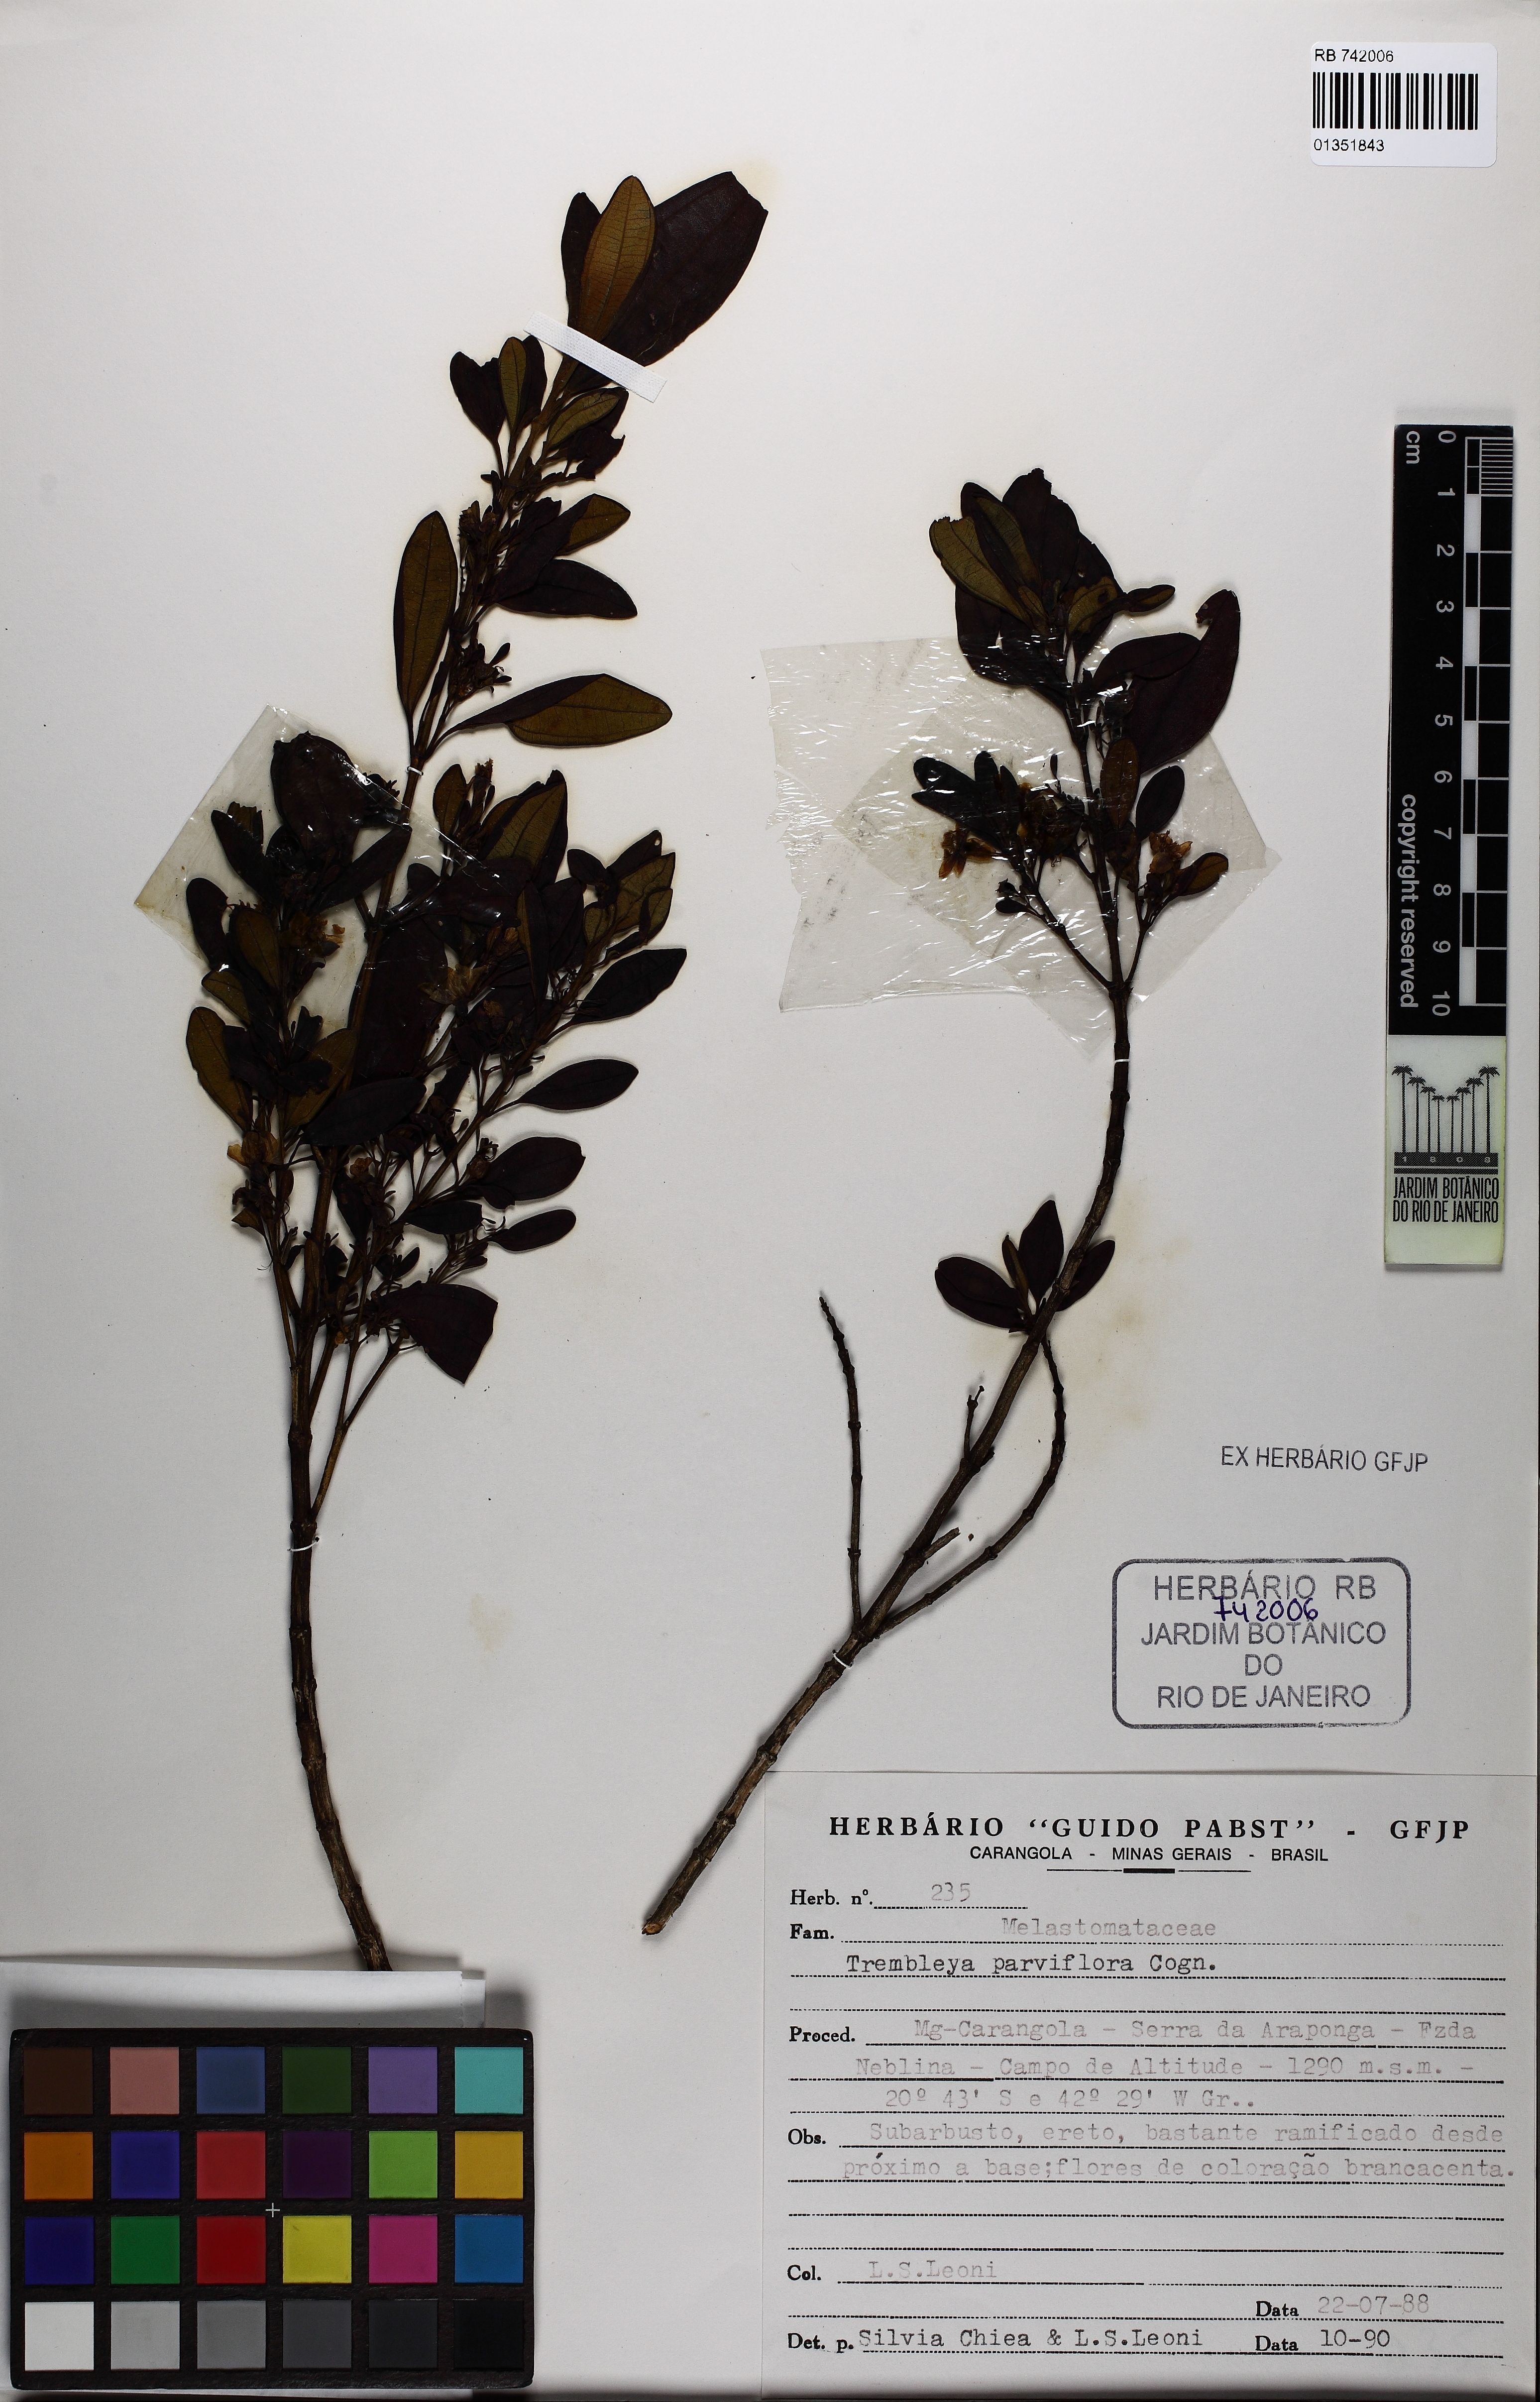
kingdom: Plantae
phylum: Tracheophyta
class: Magnoliopsida
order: Myrtales
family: Melastomataceae
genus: Microlicia
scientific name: Microlicia parviflora
